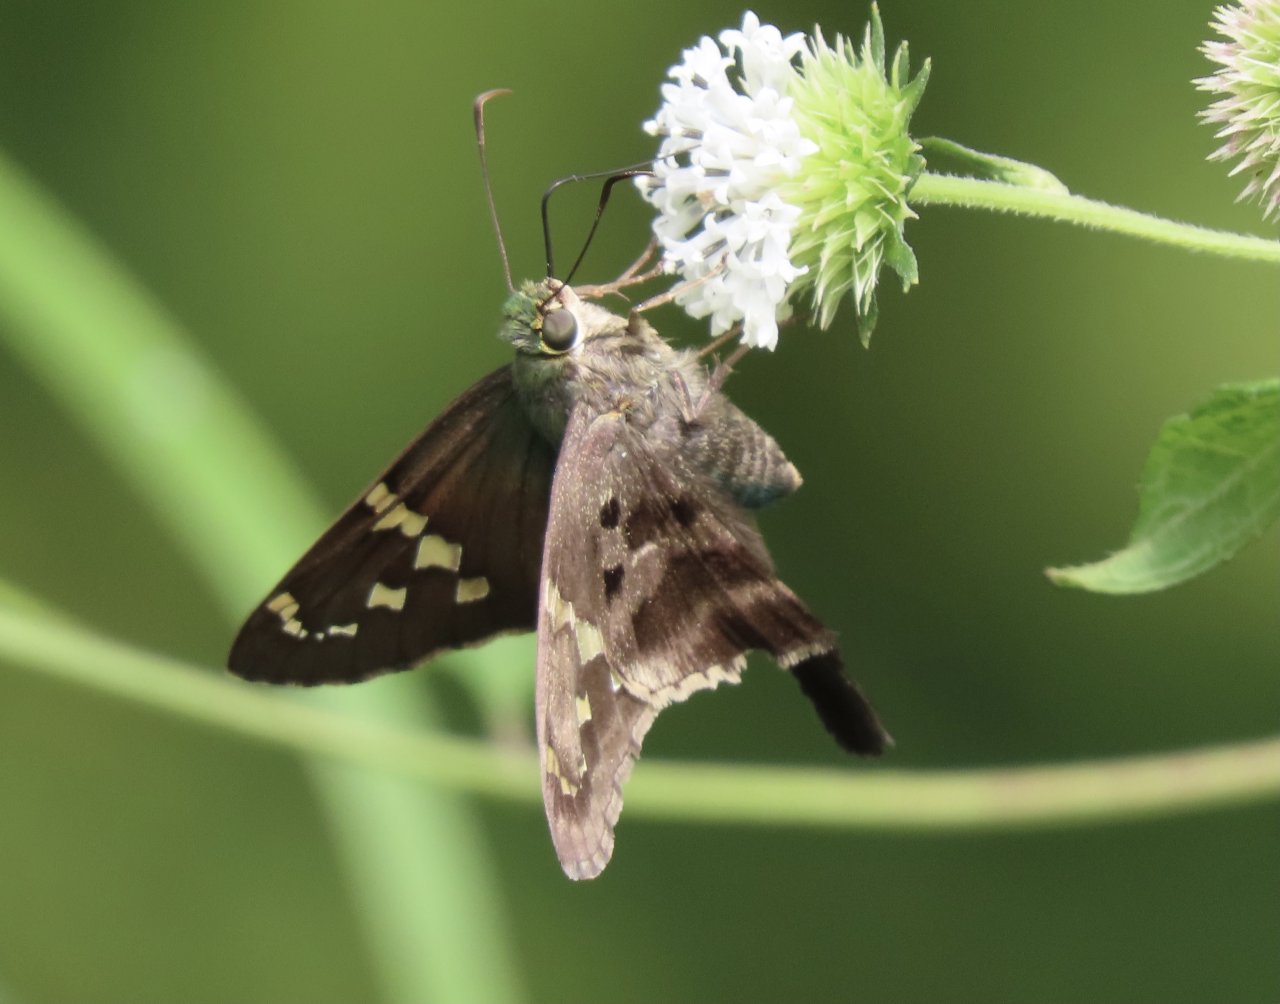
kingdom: Animalia
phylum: Arthropoda
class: Insecta
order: Lepidoptera
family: Hesperiidae
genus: Urbanus
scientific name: Urbanus proteus
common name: Long-tailed Skipper
